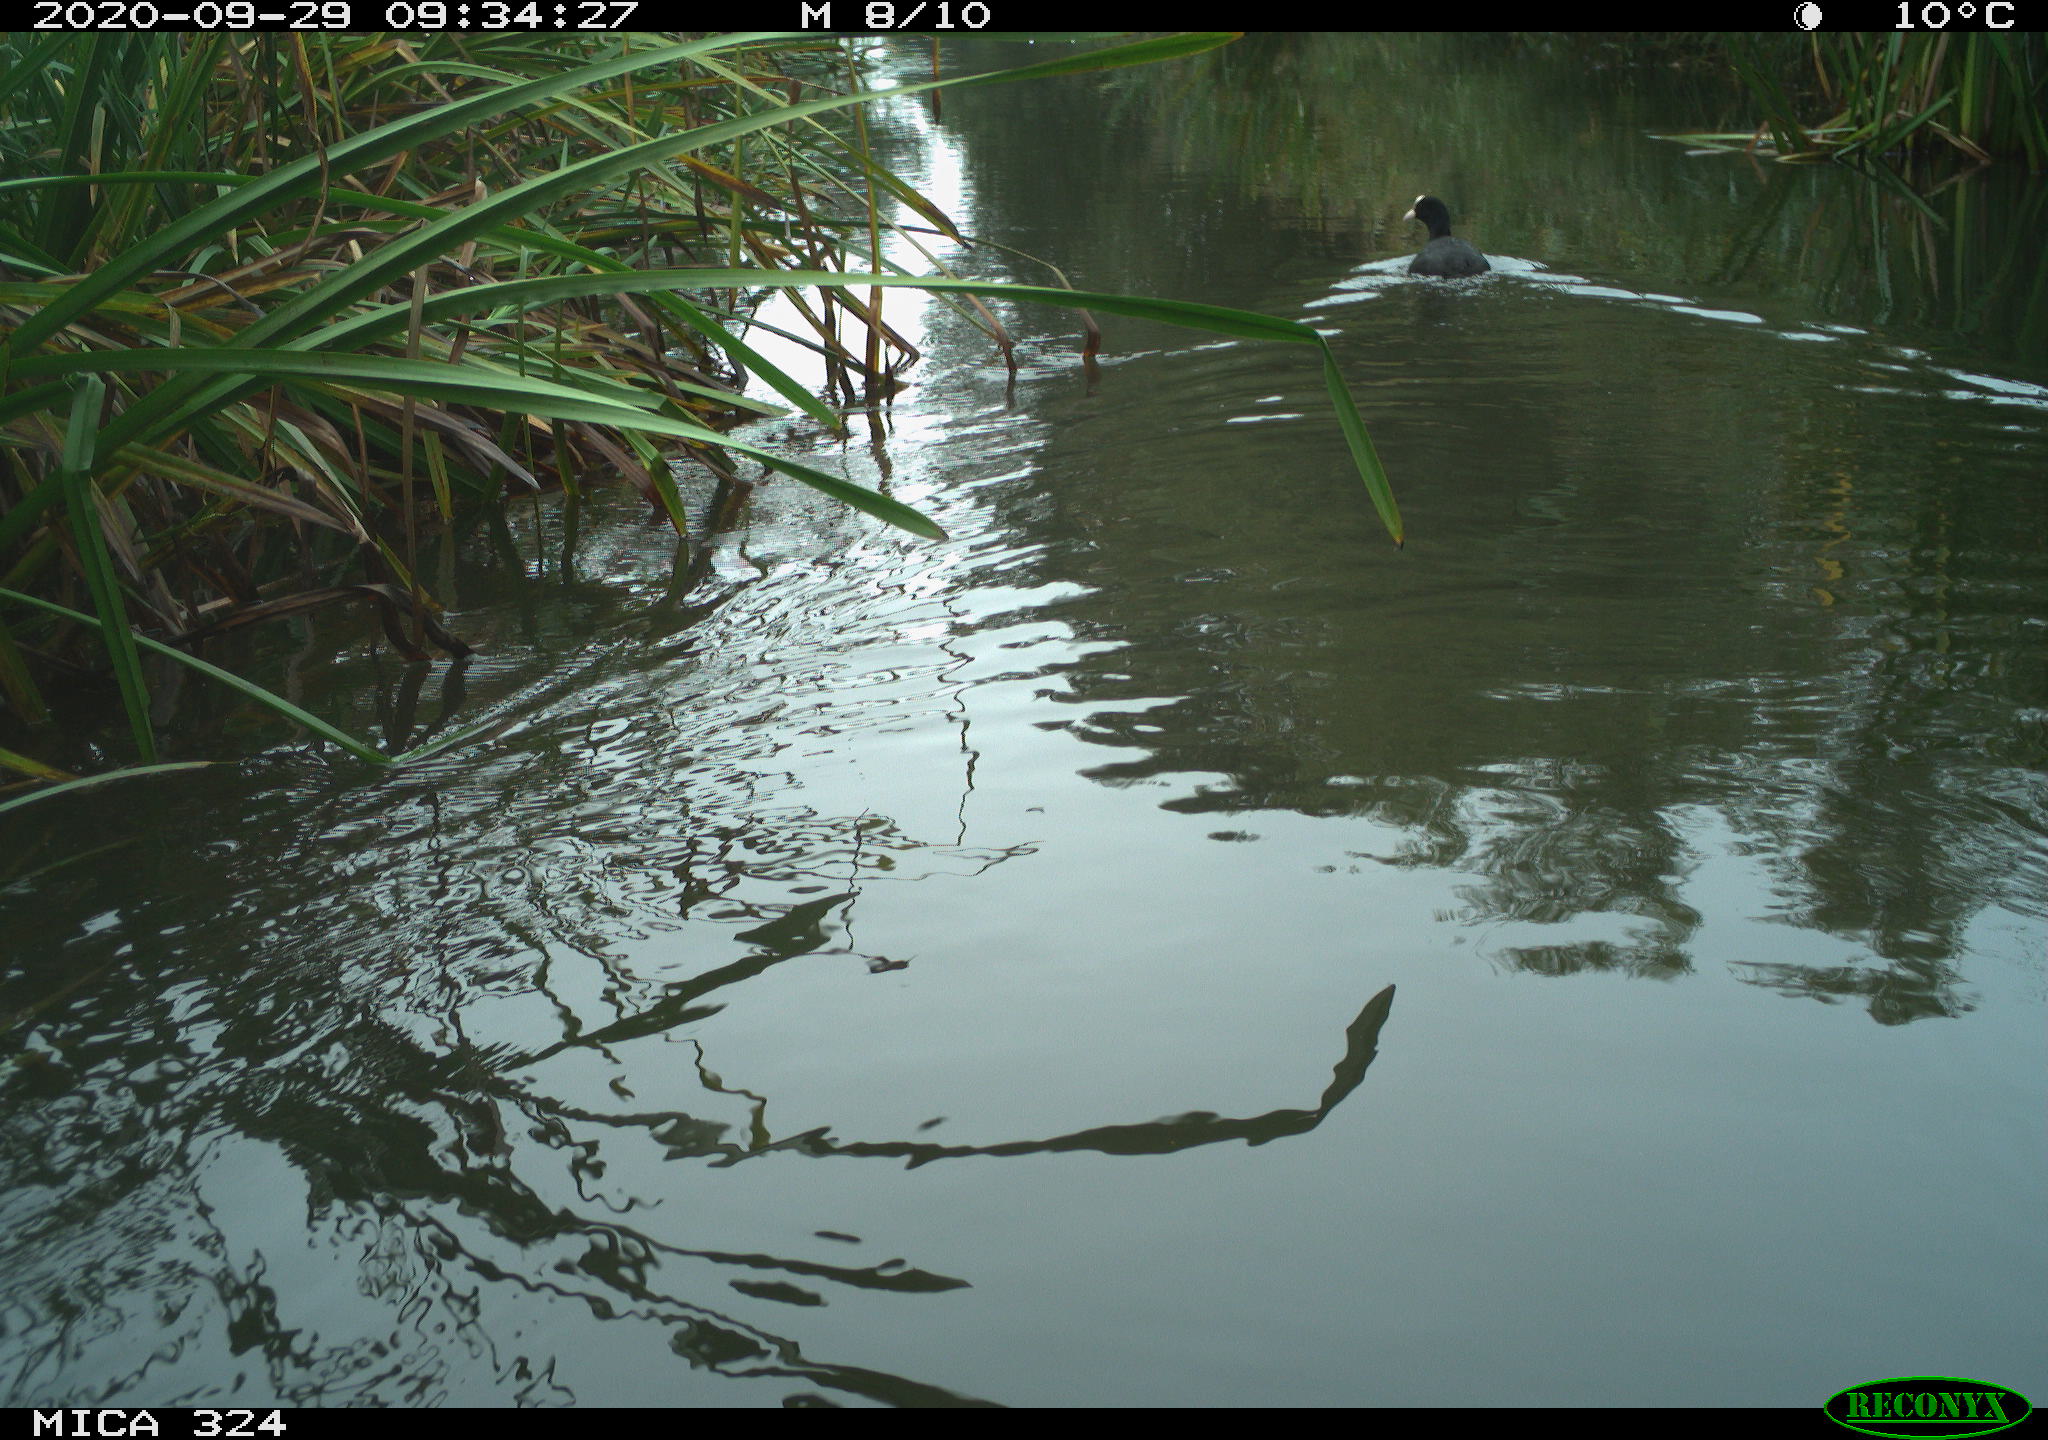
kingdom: Animalia
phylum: Chordata
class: Aves
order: Gruiformes
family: Rallidae
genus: Fulica
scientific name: Fulica atra
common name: Eurasian coot
